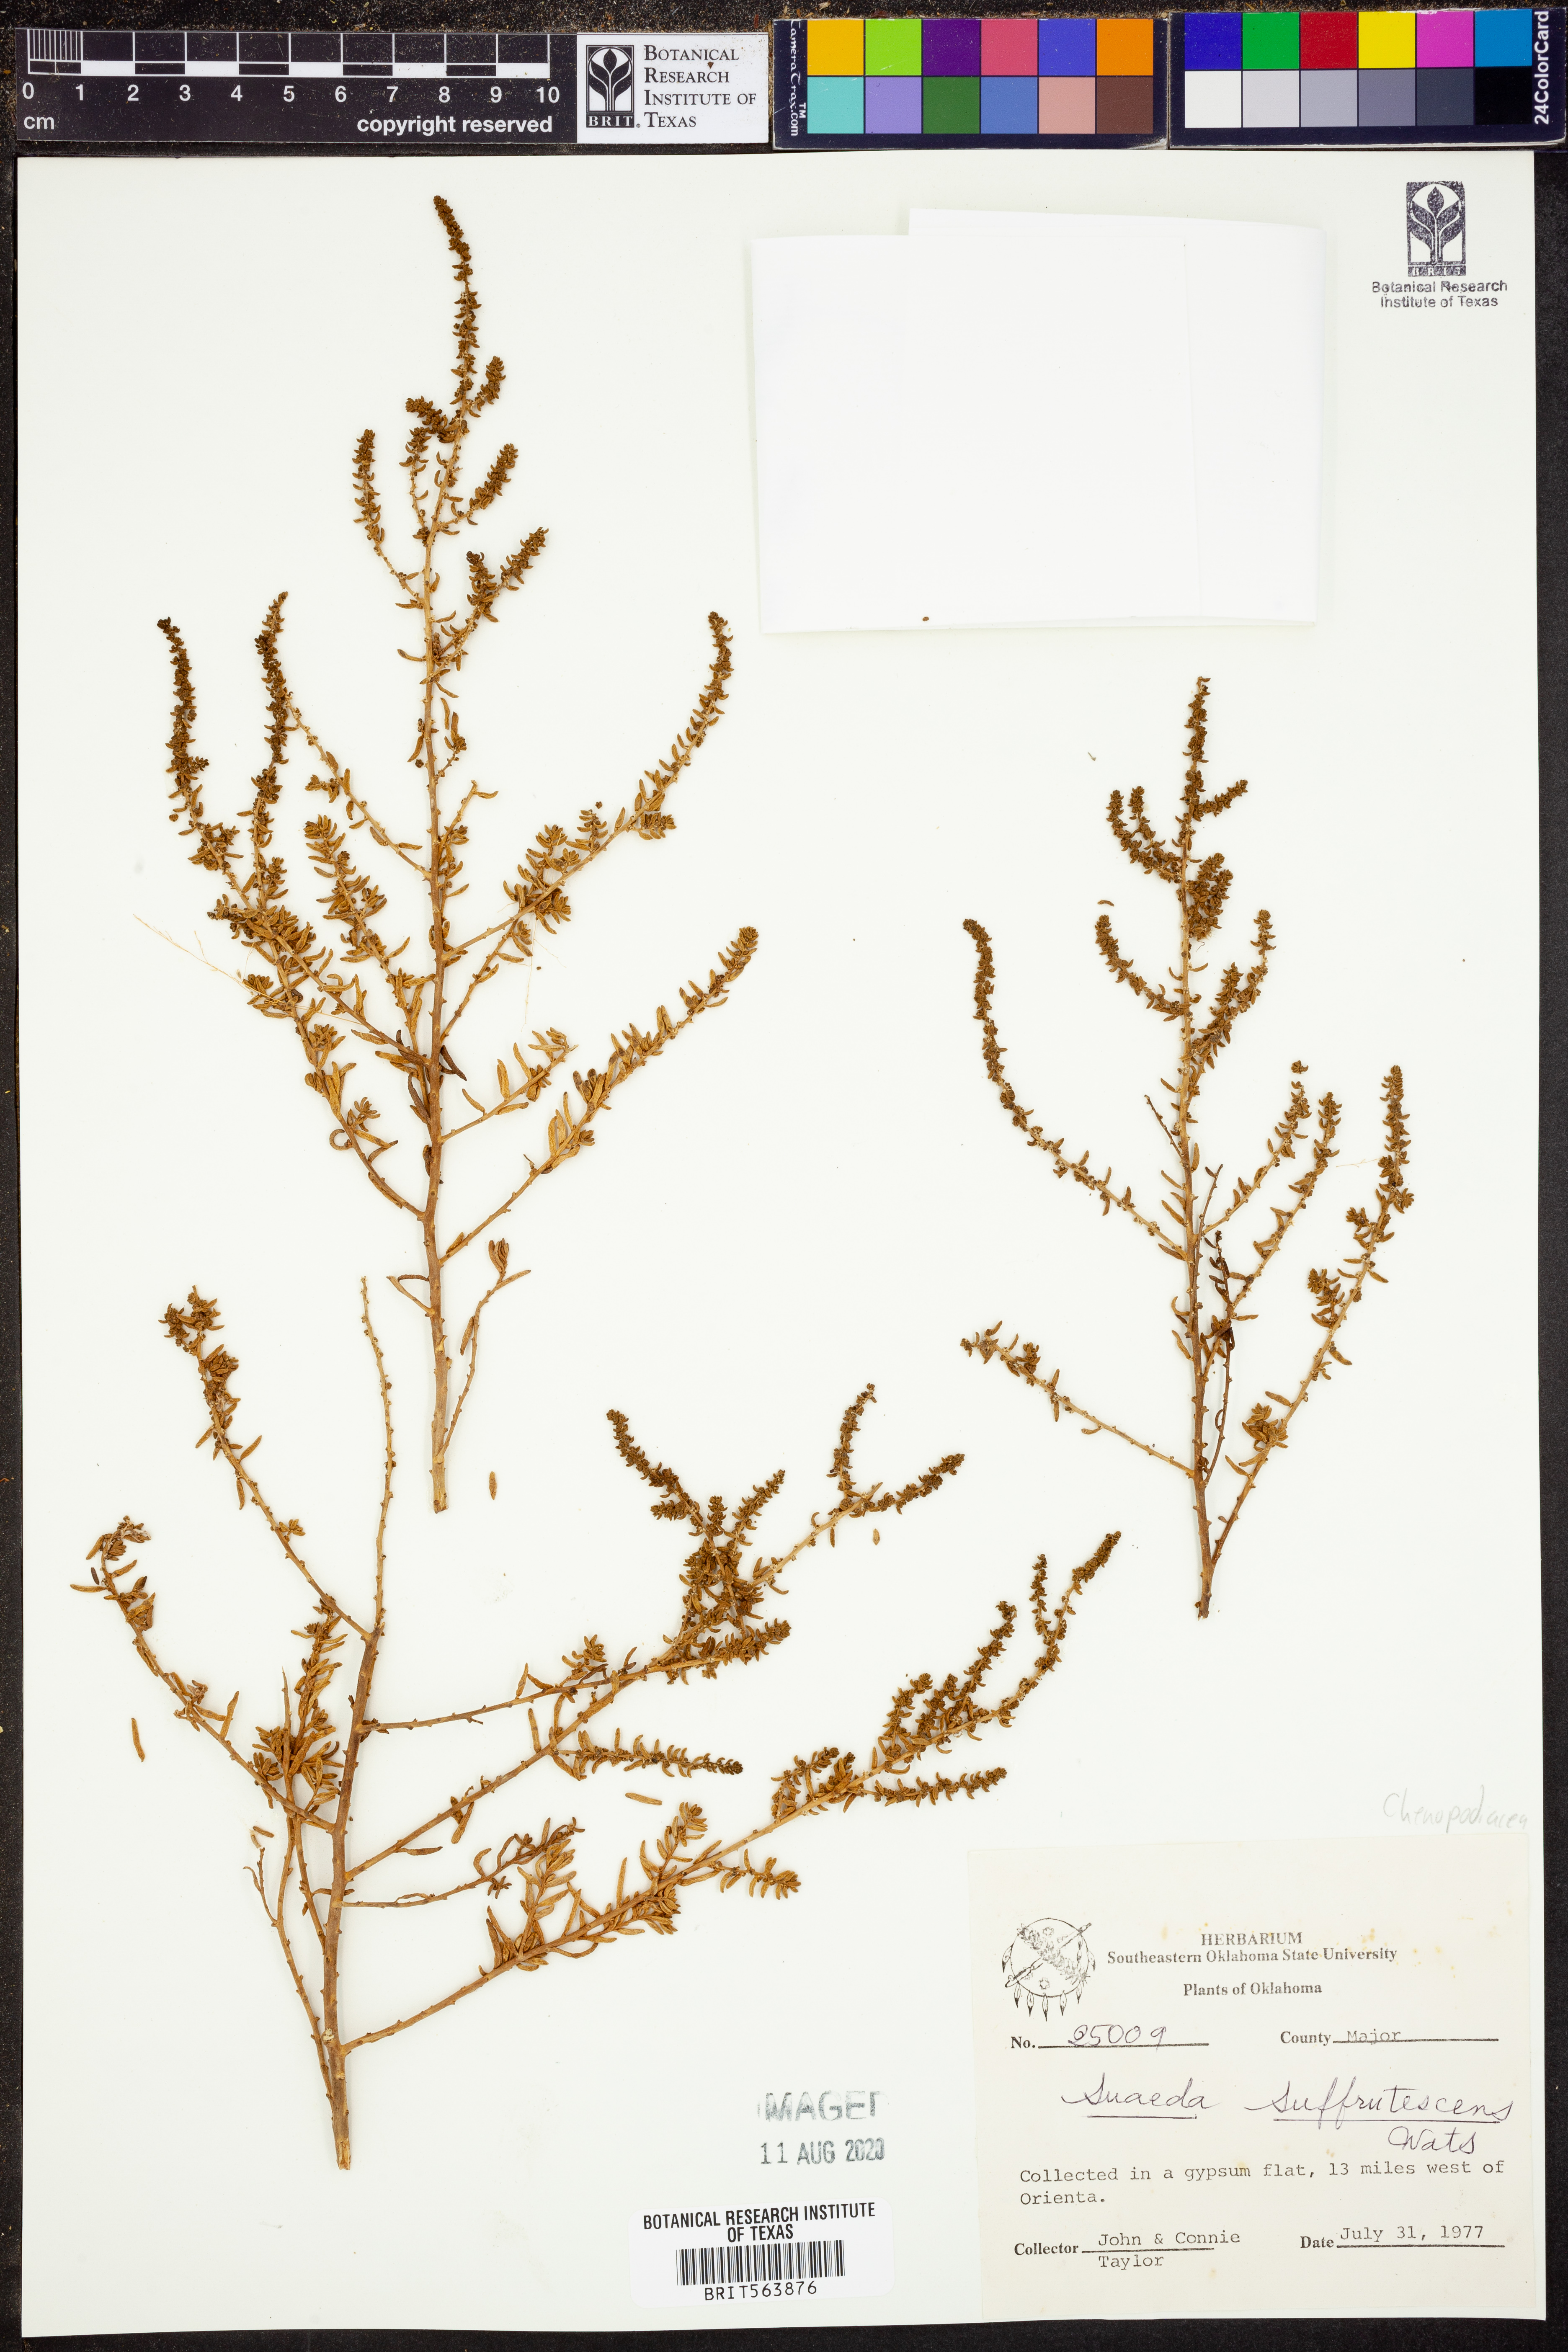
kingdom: Plantae
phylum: Tracheophyta
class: Magnoliopsida
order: Caryophyllales
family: Amaranthaceae
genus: Suaeda
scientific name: Suaeda suffrutescens
